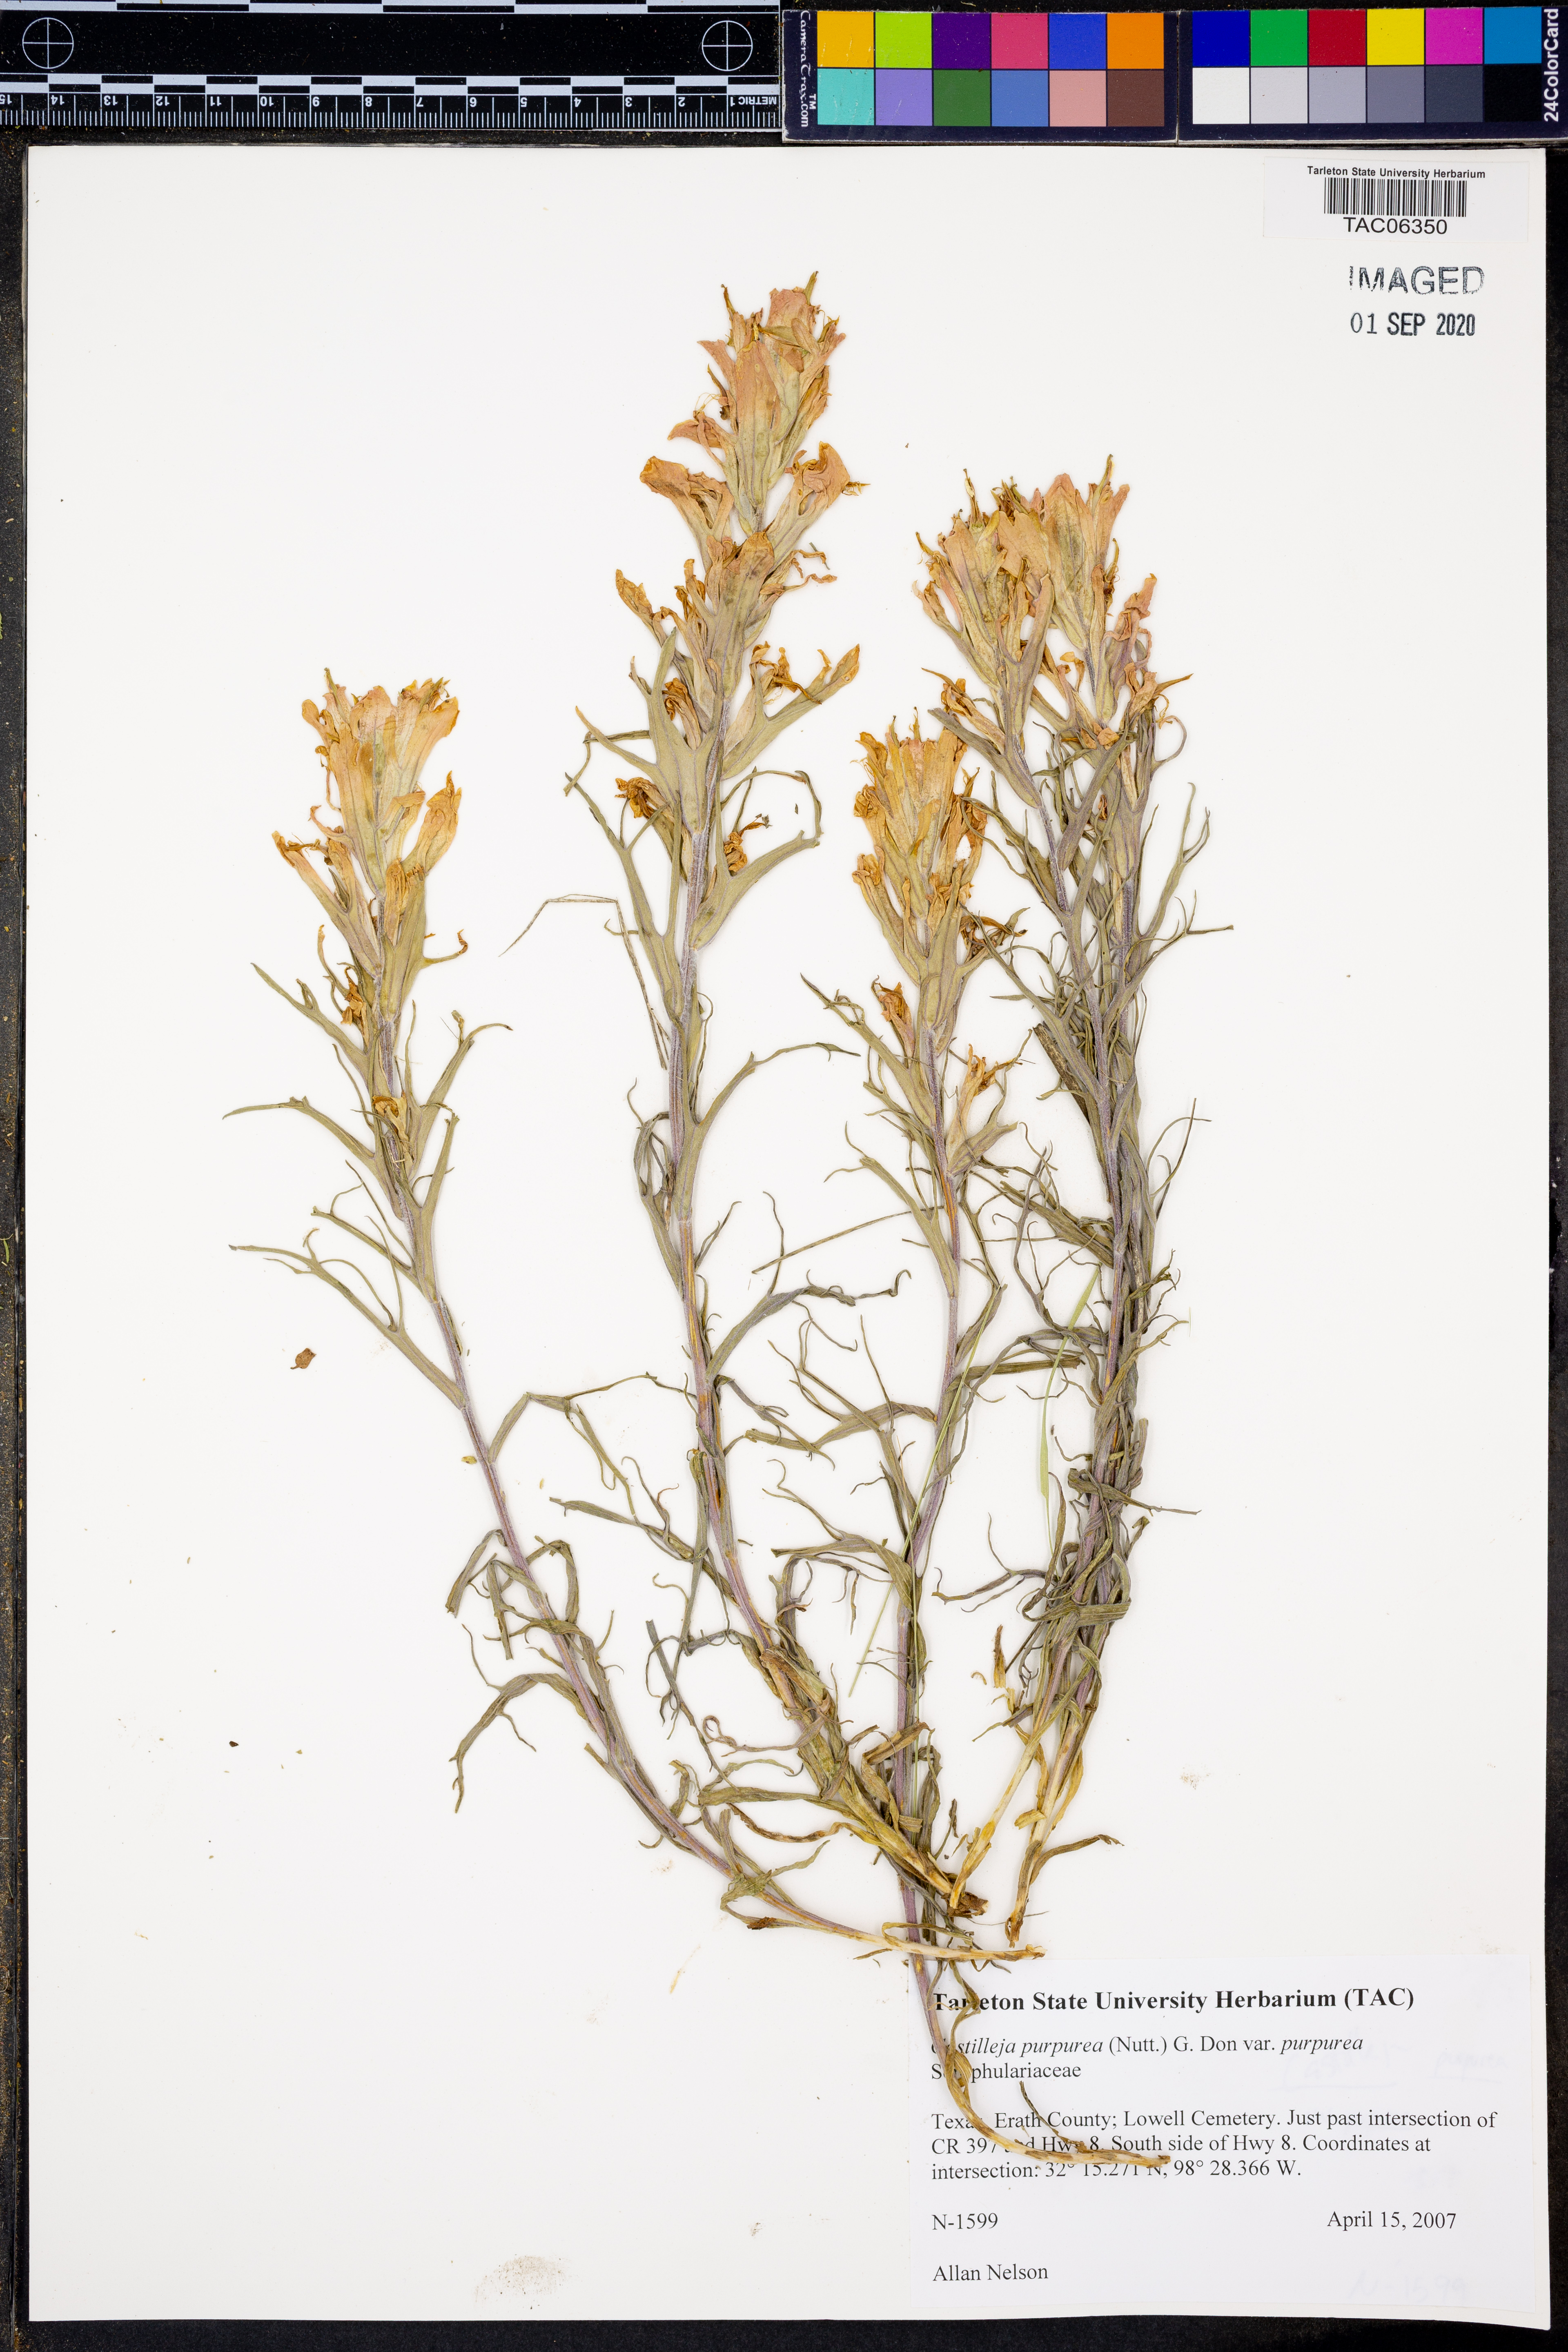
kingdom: Plantae
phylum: Tracheophyta
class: Magnoliopsida
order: Lamiales
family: Orobanchaceae
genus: Castilleja
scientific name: Castilleja purpurea
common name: Plains paintbrush
